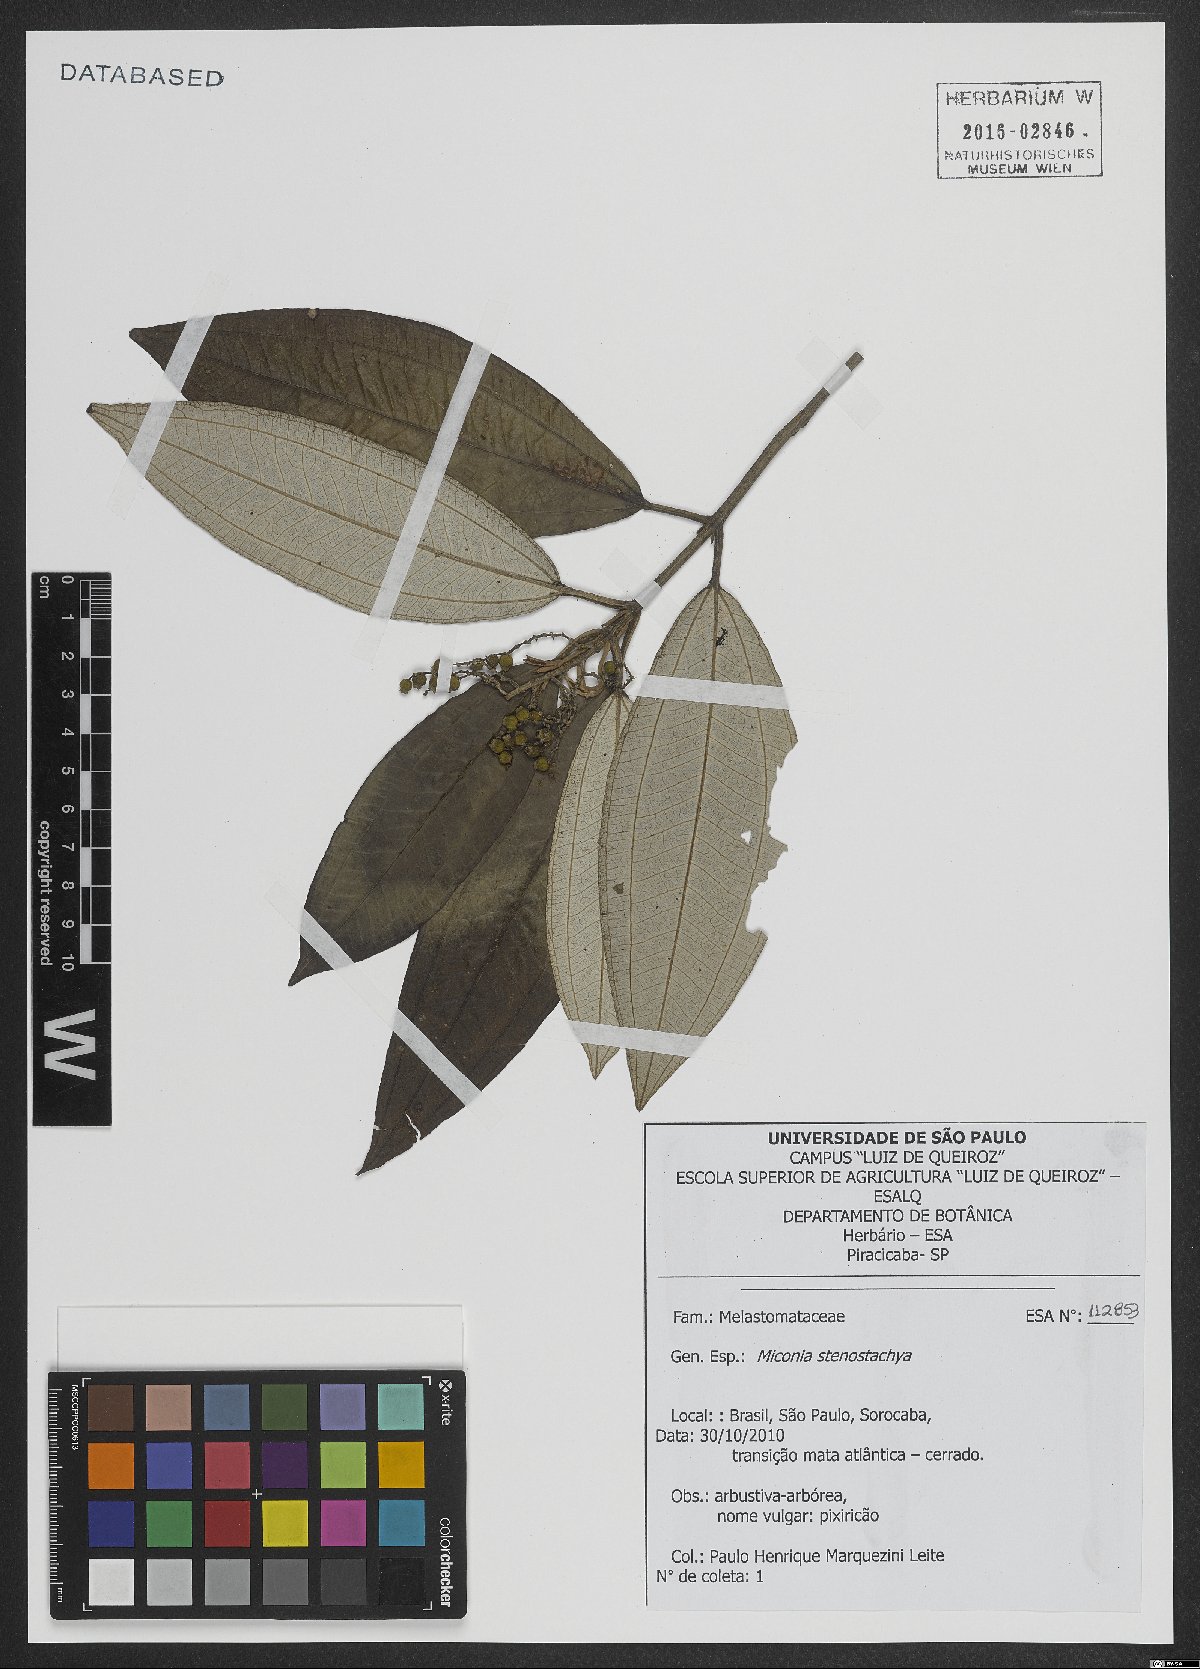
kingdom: Plantae
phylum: Tracheophyta
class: Magnoliopsida
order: Myrtales
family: Melastomataceae
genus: Miconia
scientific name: Miconia stenostachya
